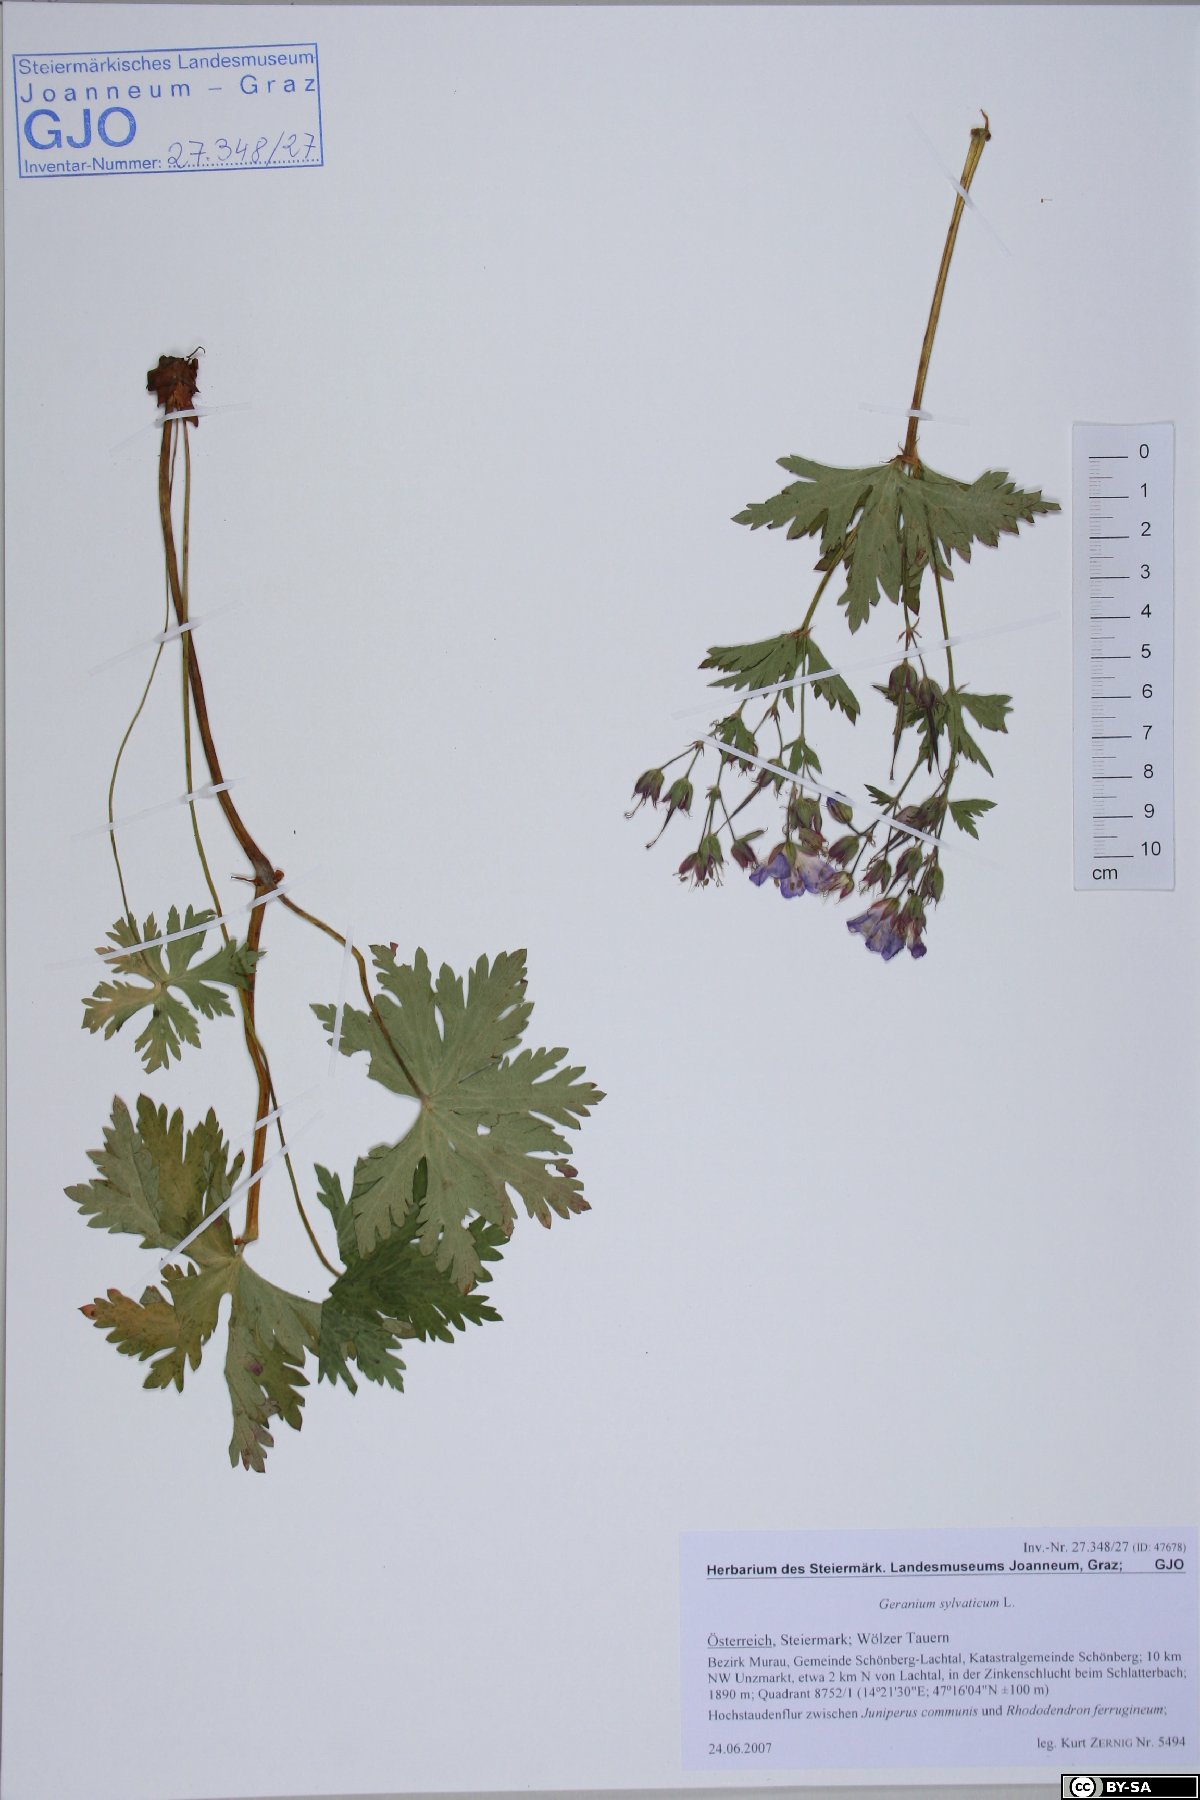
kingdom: Plantae
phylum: Tracheophyta
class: Magnoliopsida
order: Geraniales
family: Geraniaceae
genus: Geranium
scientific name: Geranium sylvaticum
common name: Wood crane's-bill
